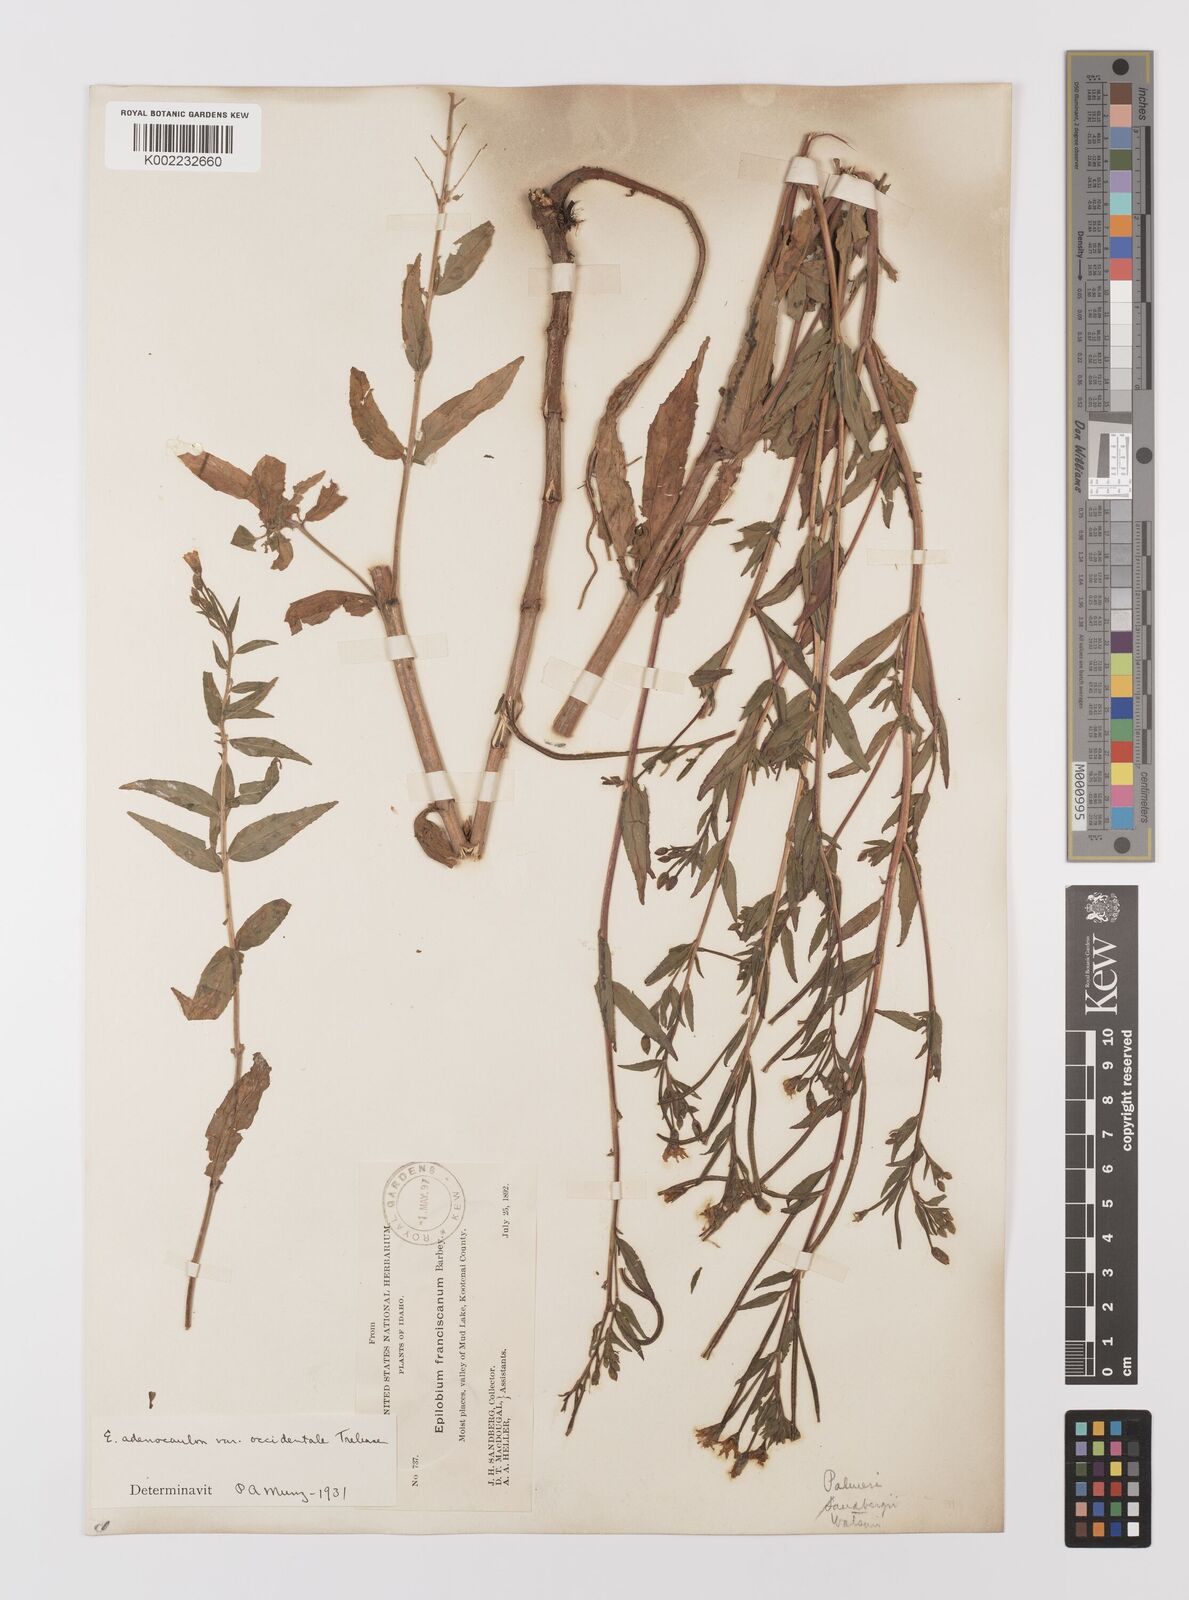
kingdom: Plantae
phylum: Tracheophyta
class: Magnoliopsida
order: Myrtales
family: Onagraceae
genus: Epilobium
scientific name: Epilobium ciliatum
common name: American willowherb
